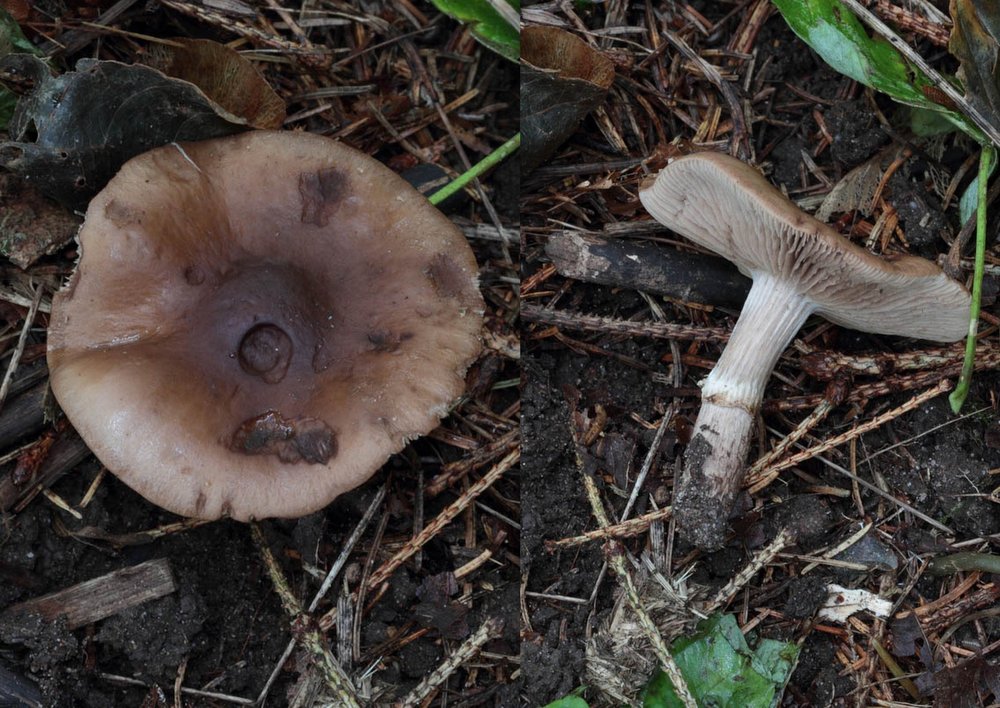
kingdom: Fungi
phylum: Basidiomycota
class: Agaricomycetes
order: Agaricales
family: Tubariaceae
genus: Cyclocybe
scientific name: Cyclocybe erebia
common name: mørk agerhat
